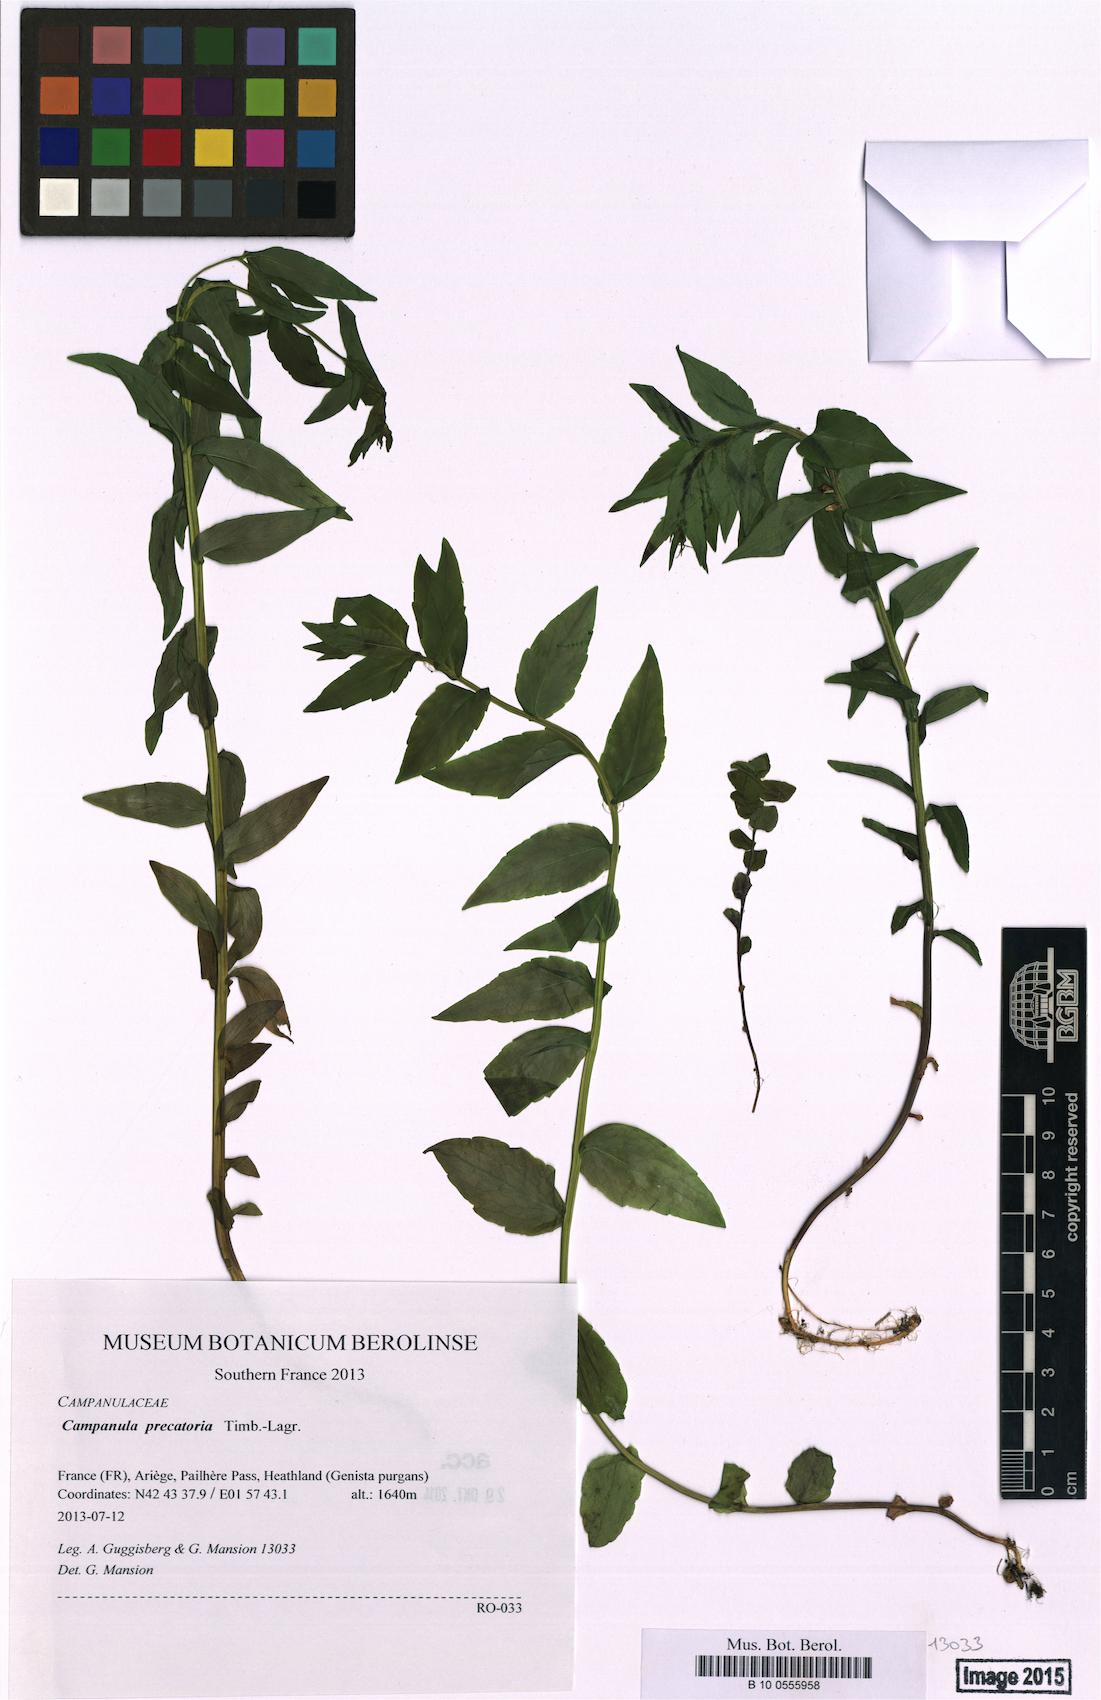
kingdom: Plantae
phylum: Tracheophyta
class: Magnoliopsida
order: Asterales
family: Campanulaceae
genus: Campanula
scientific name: Campanula precatoria
